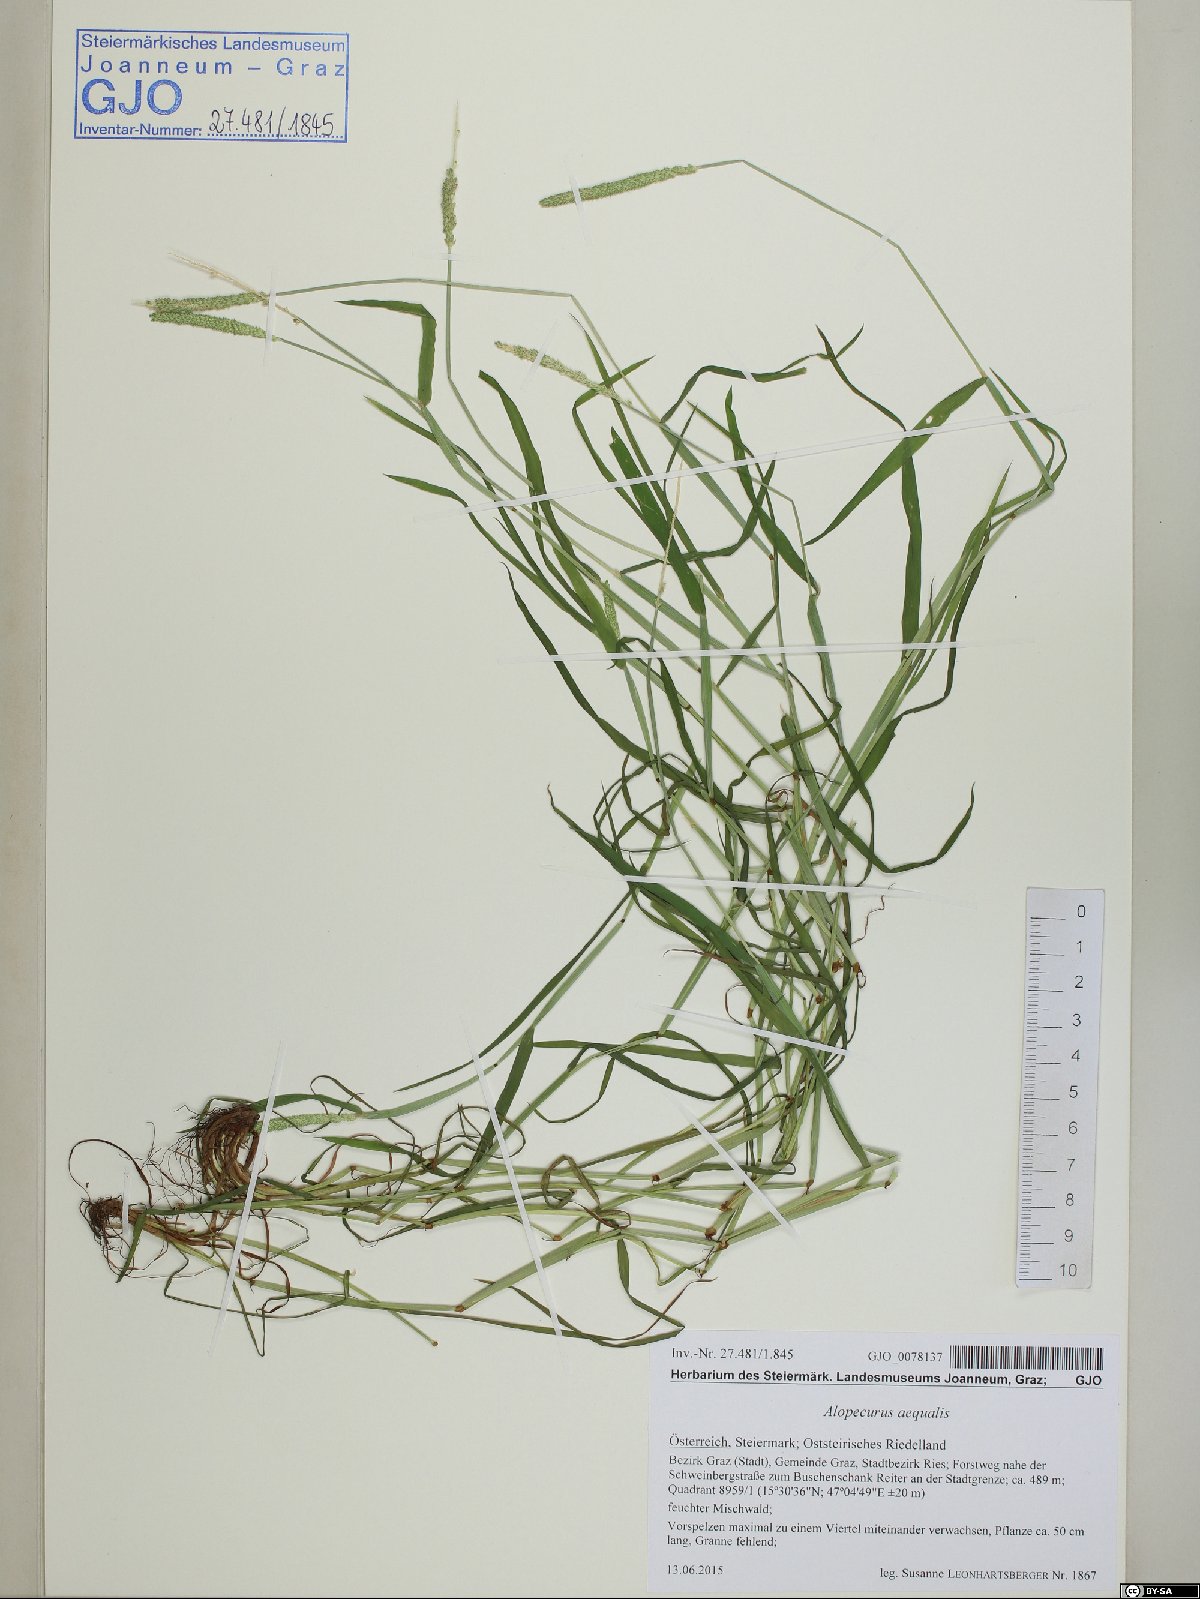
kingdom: Plantae
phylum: Tracheophyta
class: Liliopsida
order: Poales
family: Poaceae
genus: Alopecurus
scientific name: Alopecurus aequalis
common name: Orange foxtail
